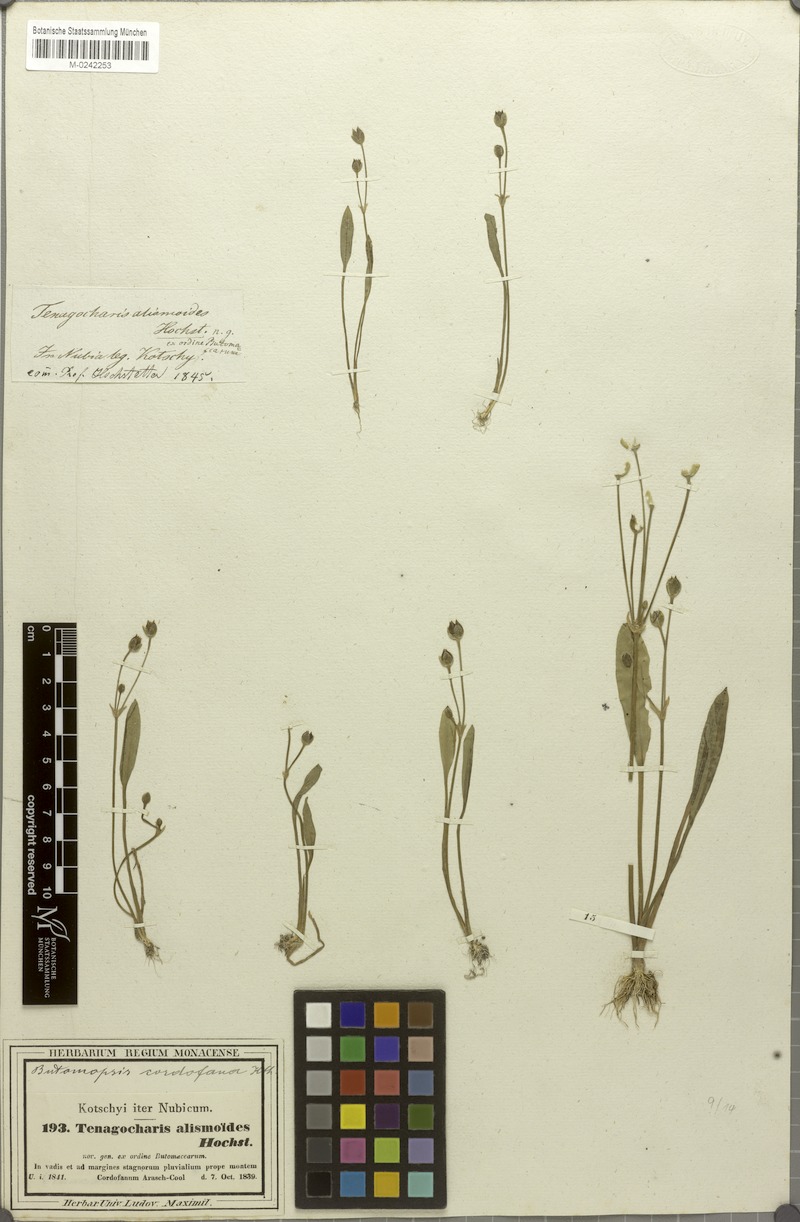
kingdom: Plantae
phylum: Tracheophyta
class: Liliopsida
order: Alismatales
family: Alismataceae
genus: Butomopsis
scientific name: Butomopsis latifolia
